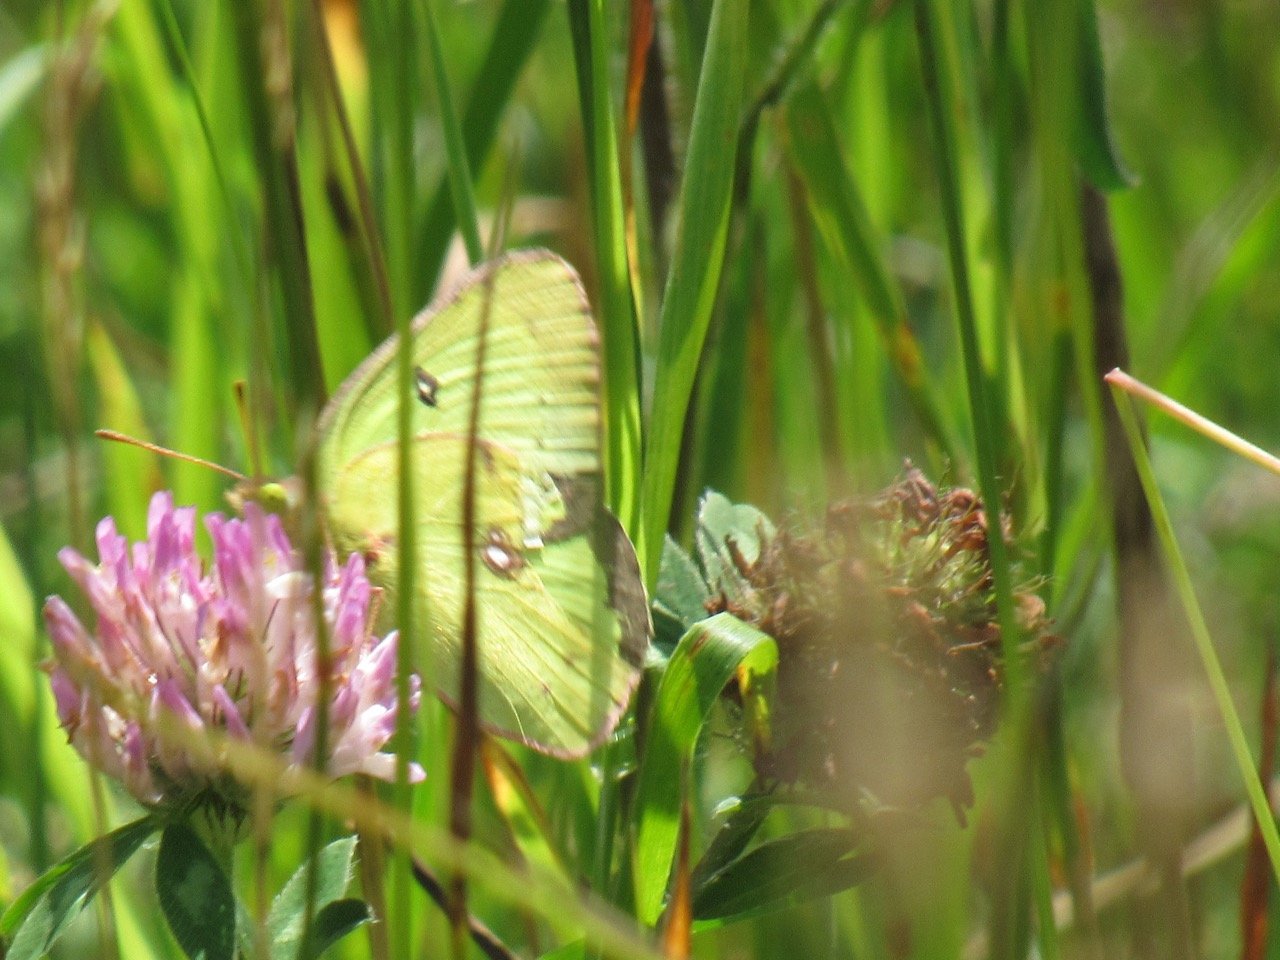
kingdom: Animalia
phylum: Arthropoda
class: Insecta
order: Lepidoptera
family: Pieridae
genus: Colias
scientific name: Colias philodice
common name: Clouded Sulphur
